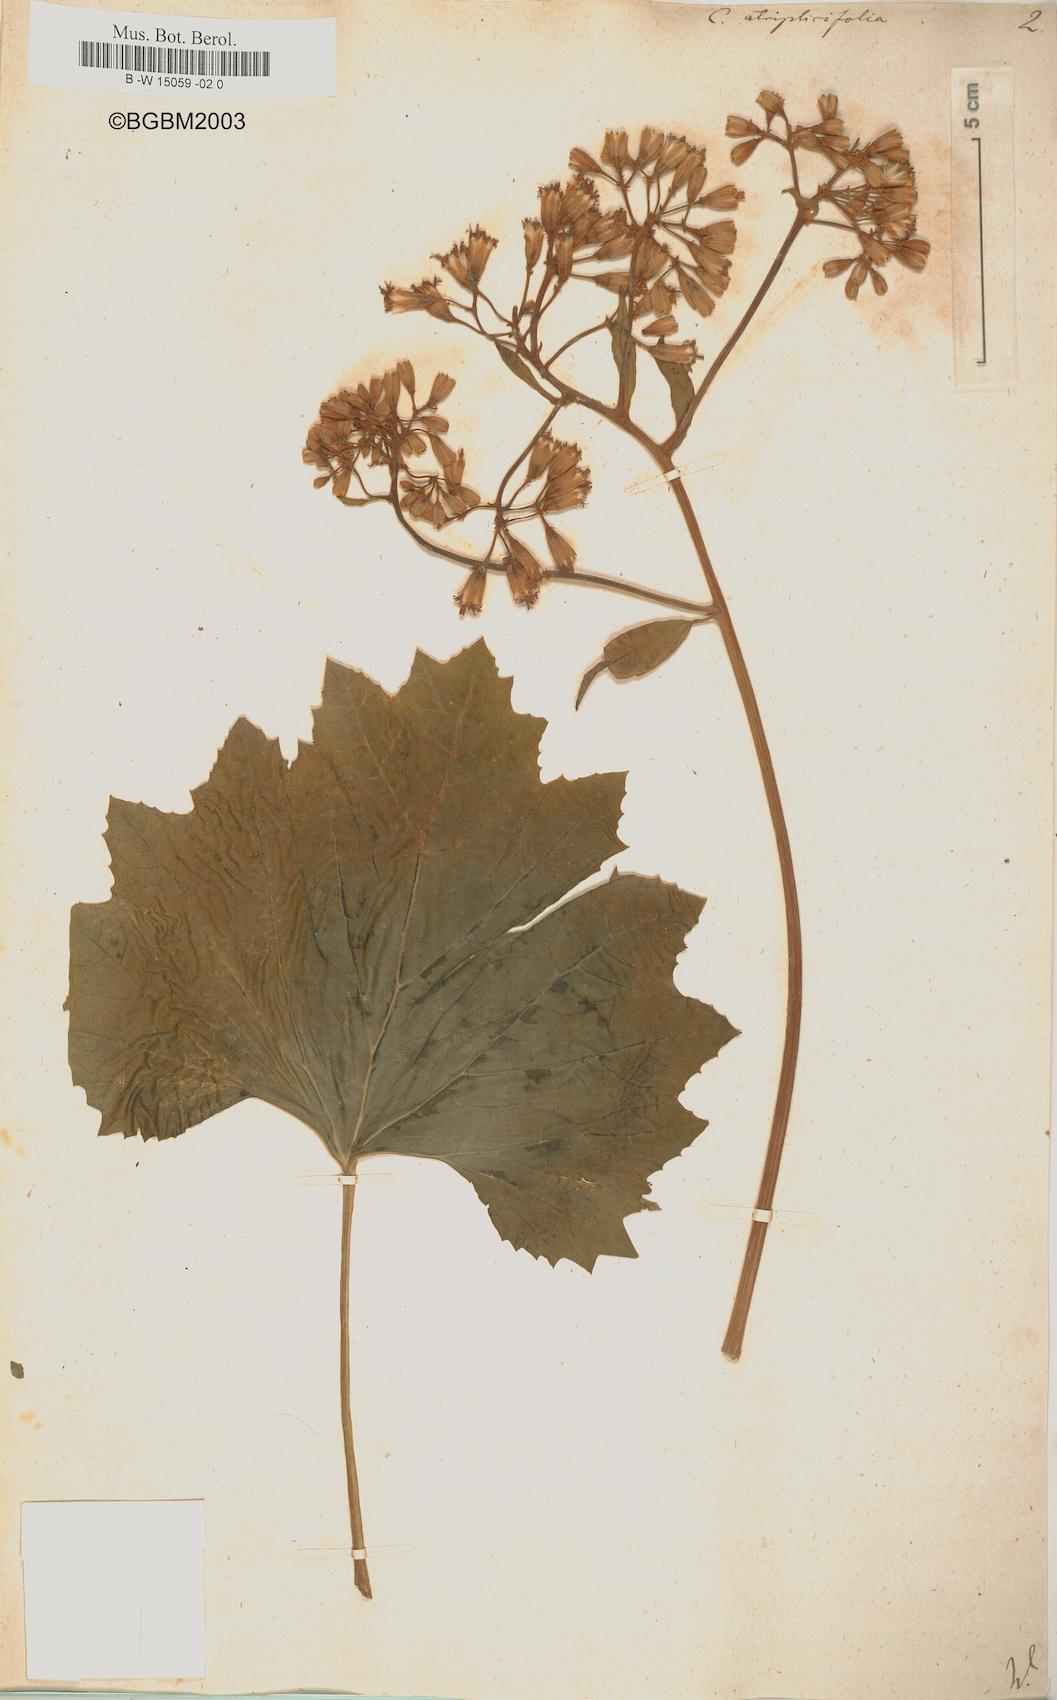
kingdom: Plantae
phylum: Tracheophyta
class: Magnoliopsida
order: Asterales
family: Asteraceae
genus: Arnoglossum
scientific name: Arnoglossum atriplicifolium
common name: Pale indian-plantain
